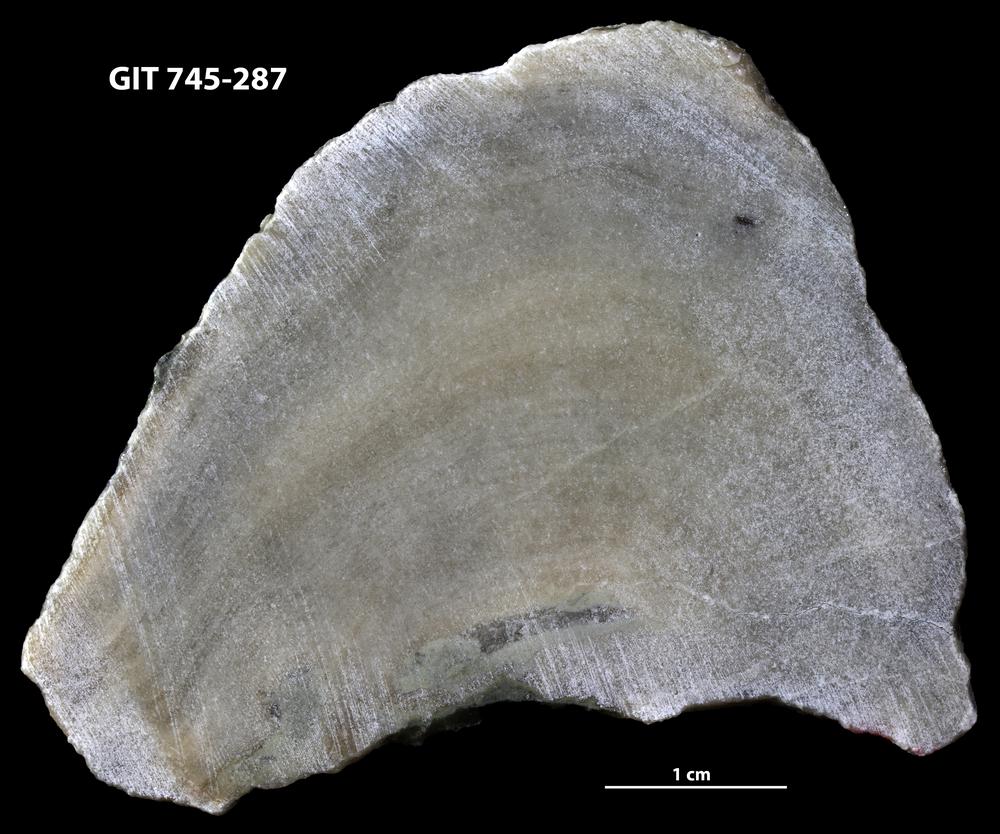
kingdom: Animalia
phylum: Porifera
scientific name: Porifera
